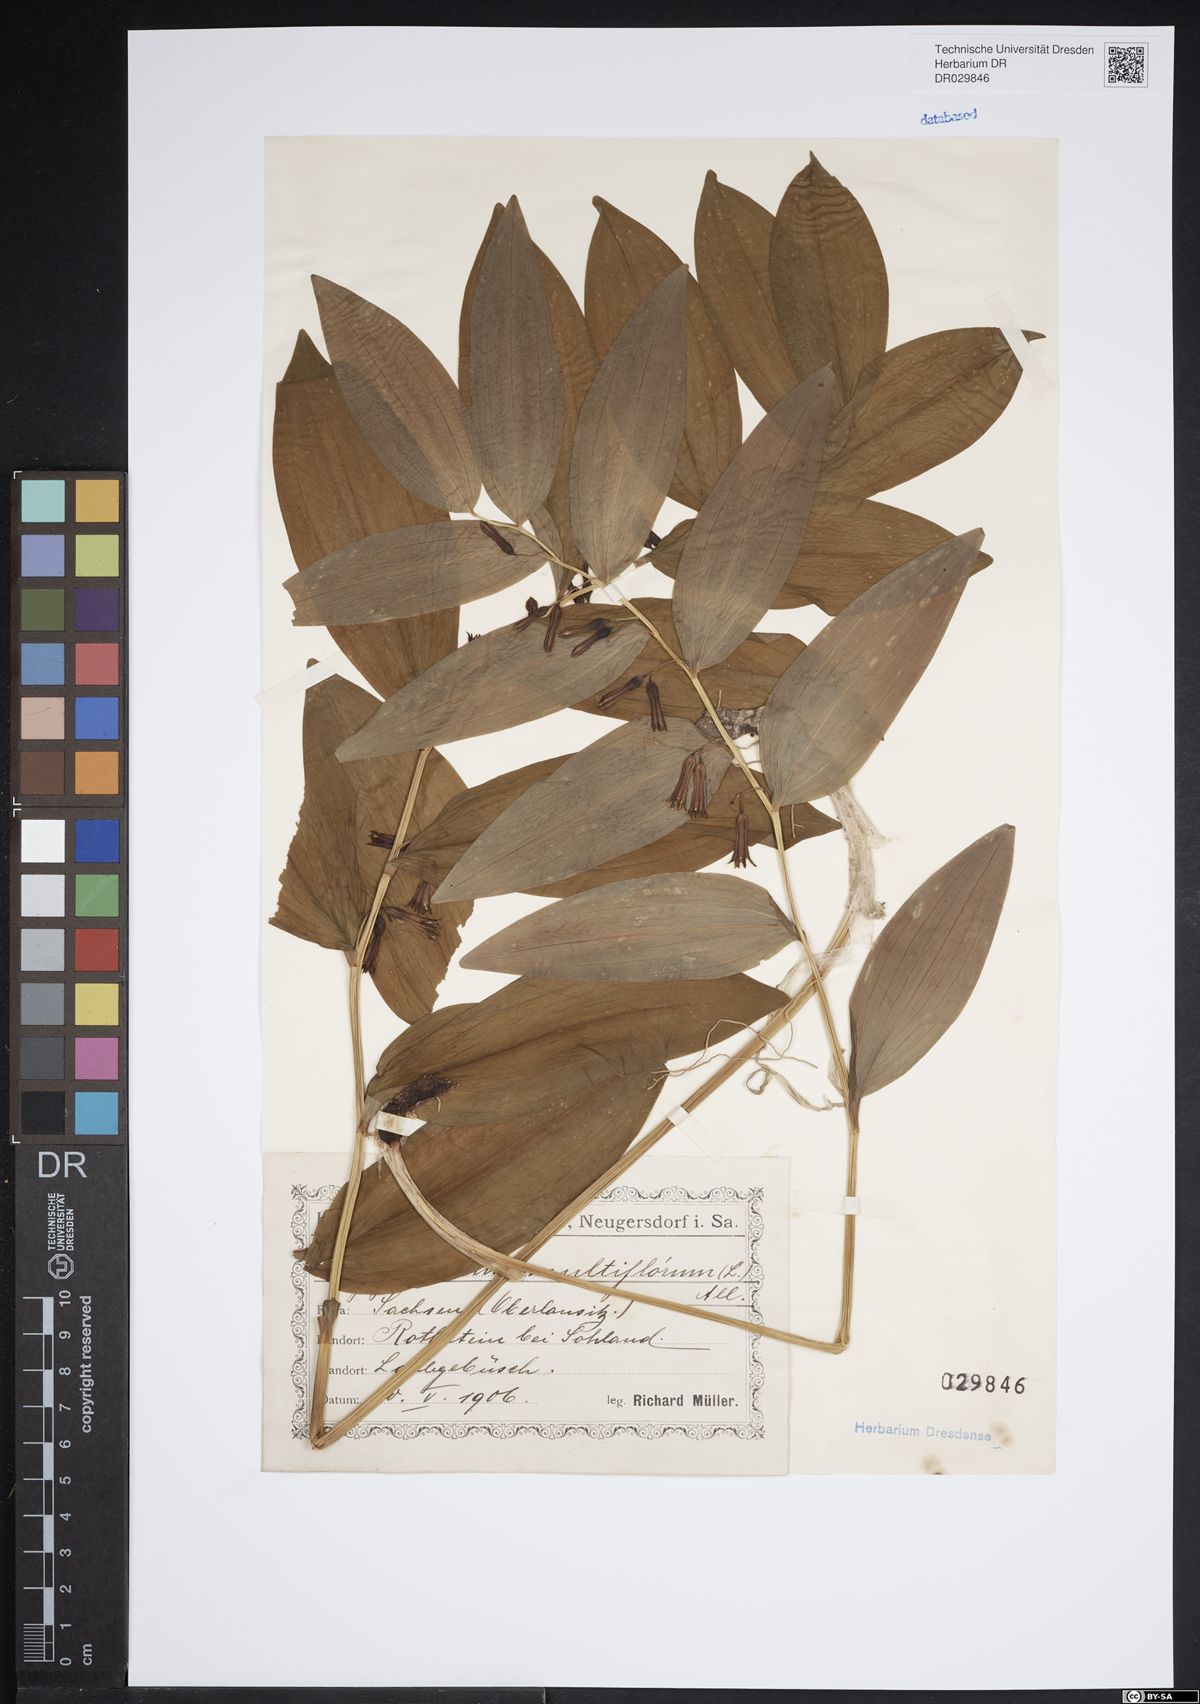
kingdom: Plantae
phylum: Tracheophyta
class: Liliopsida
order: Asparagales
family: Asparagaceae
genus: Polygonatum
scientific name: Polygonatum odoratum
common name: Angular solomon's-seal
